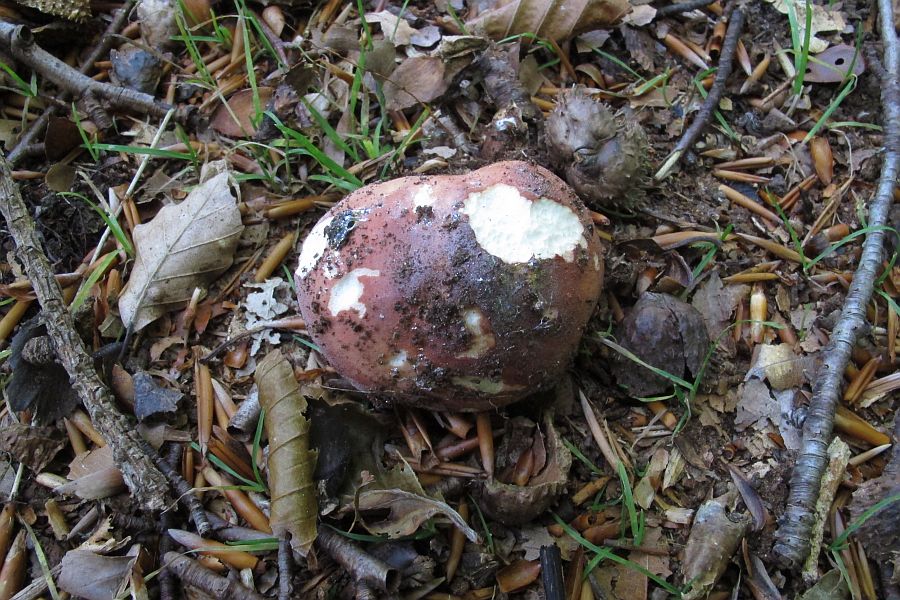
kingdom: Fungi
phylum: Basidiomycota
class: Agaricomycetes
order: Russulales
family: Russulaceae
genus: Russula
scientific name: Russula
